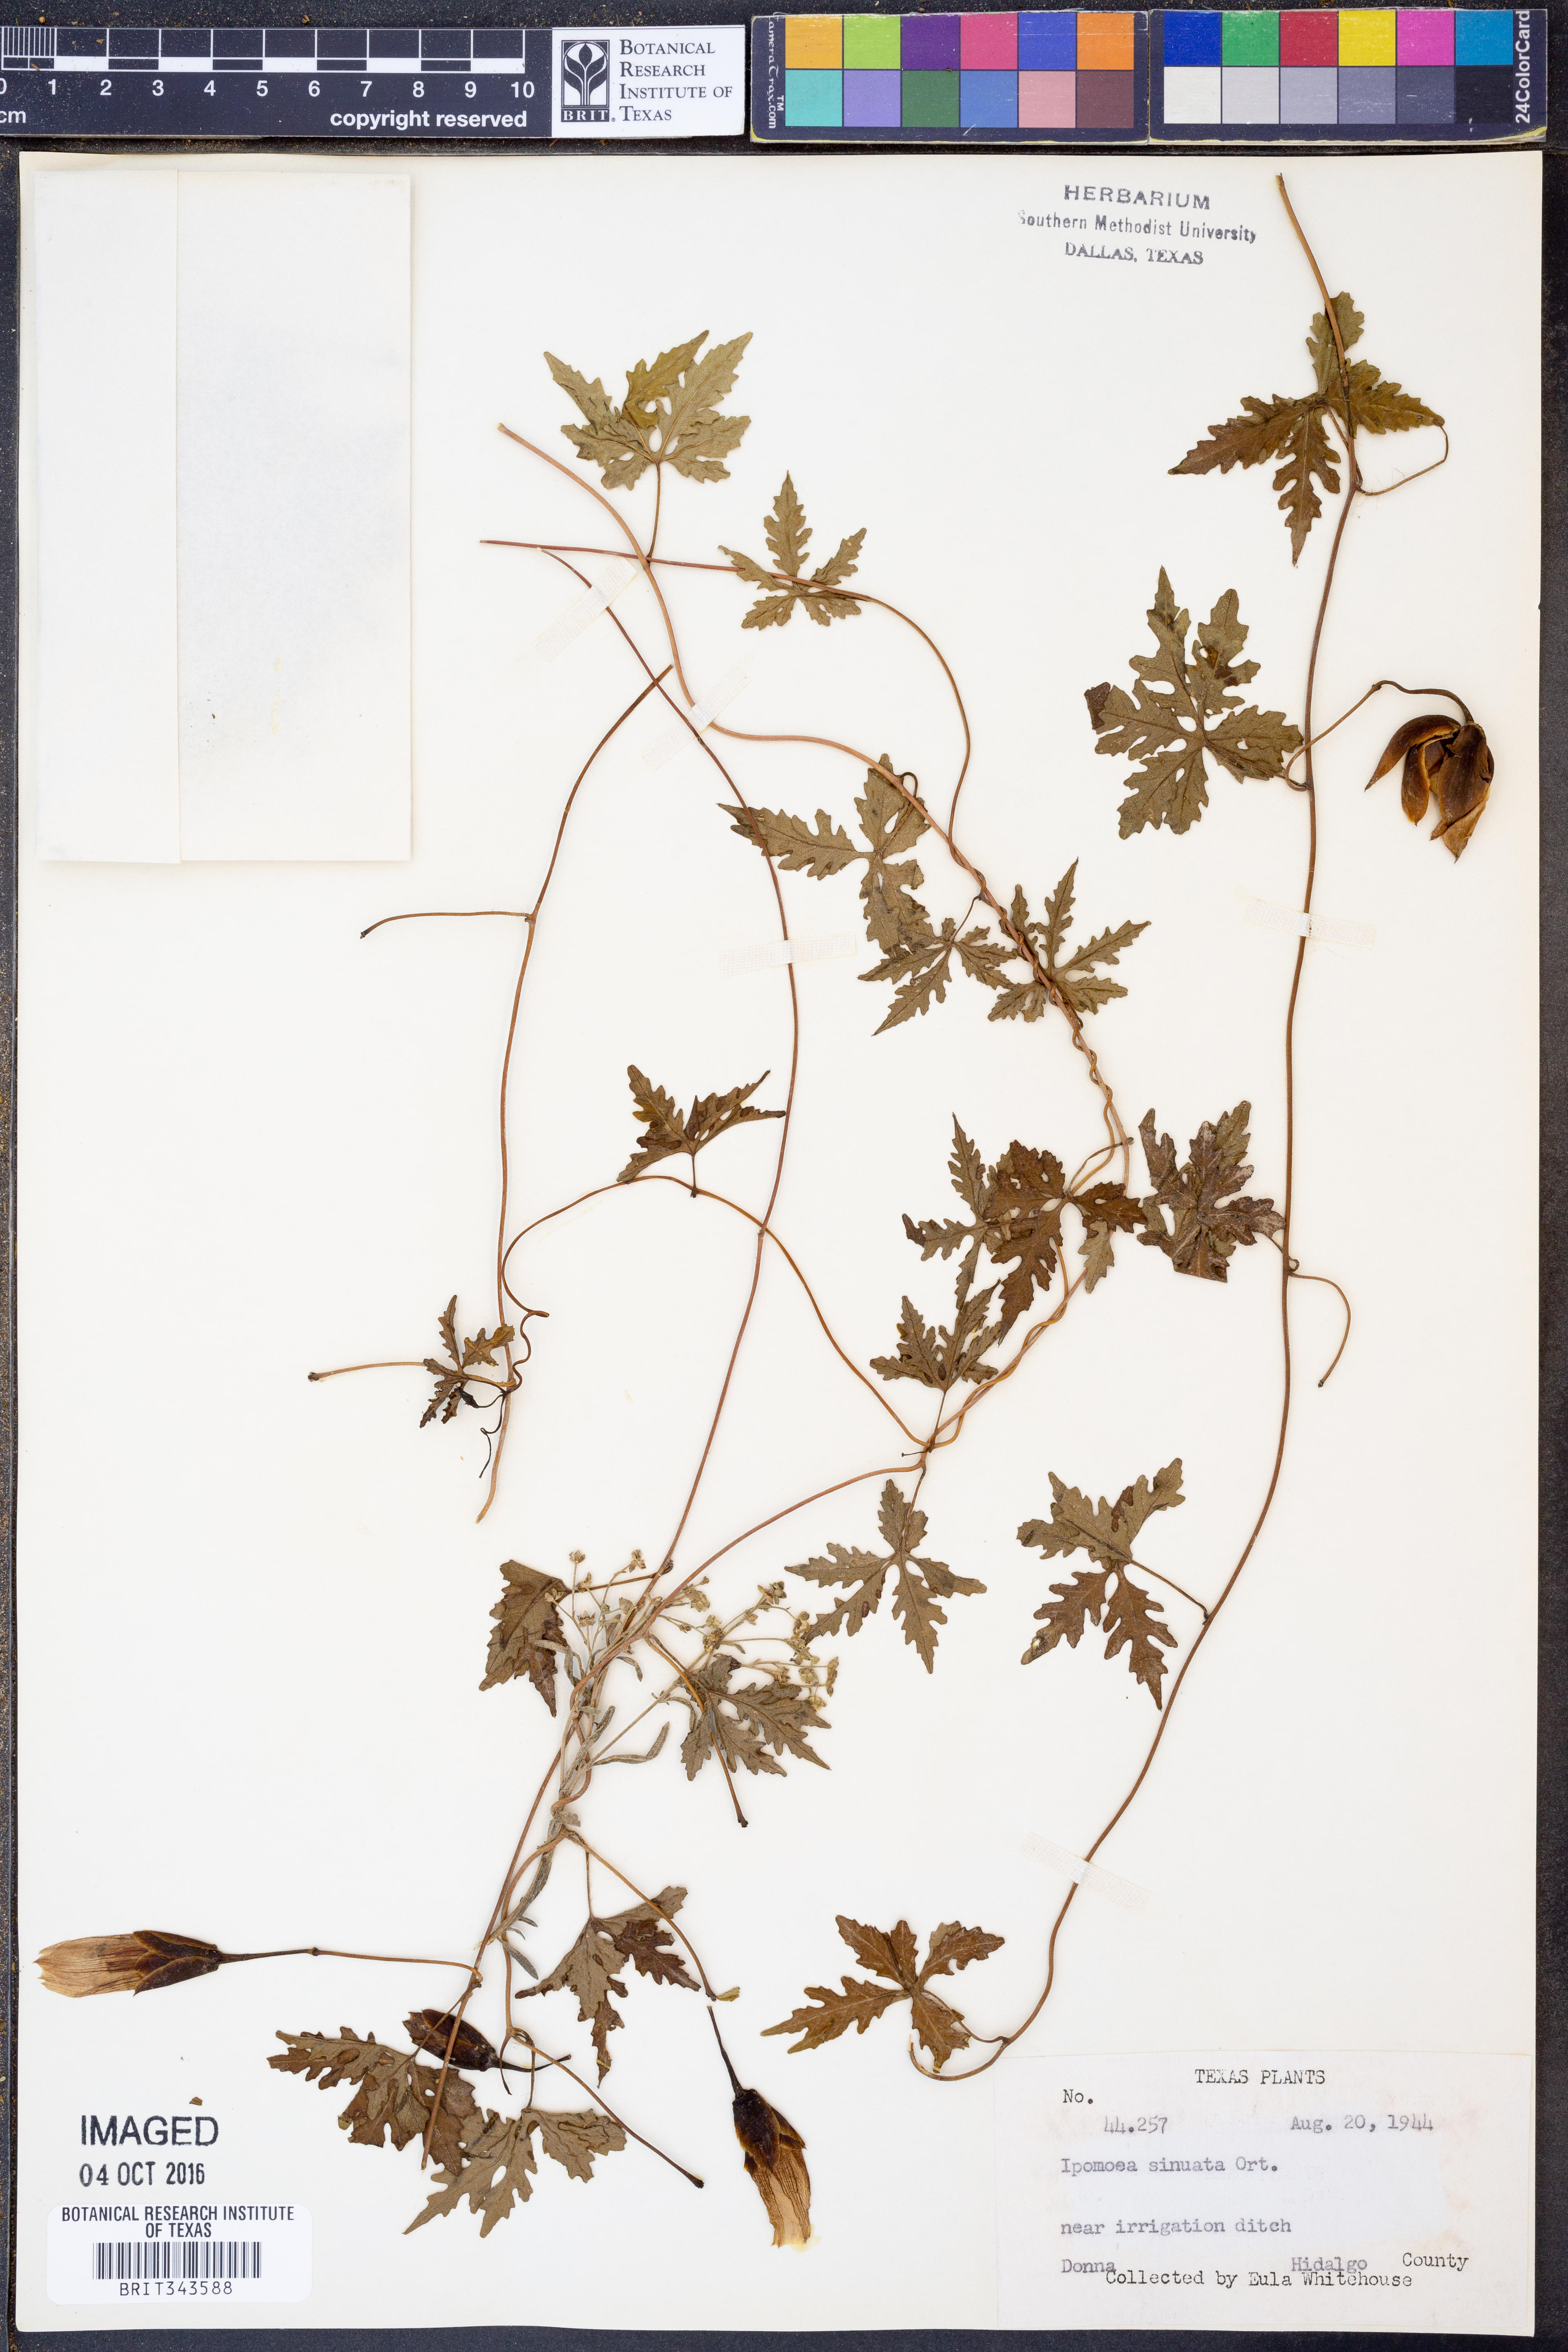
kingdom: Plantae
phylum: Tracheophyta
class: Magnoliopsida
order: Solanales
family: Convolvulaceae
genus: Distimake
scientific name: Distimake dissectus
